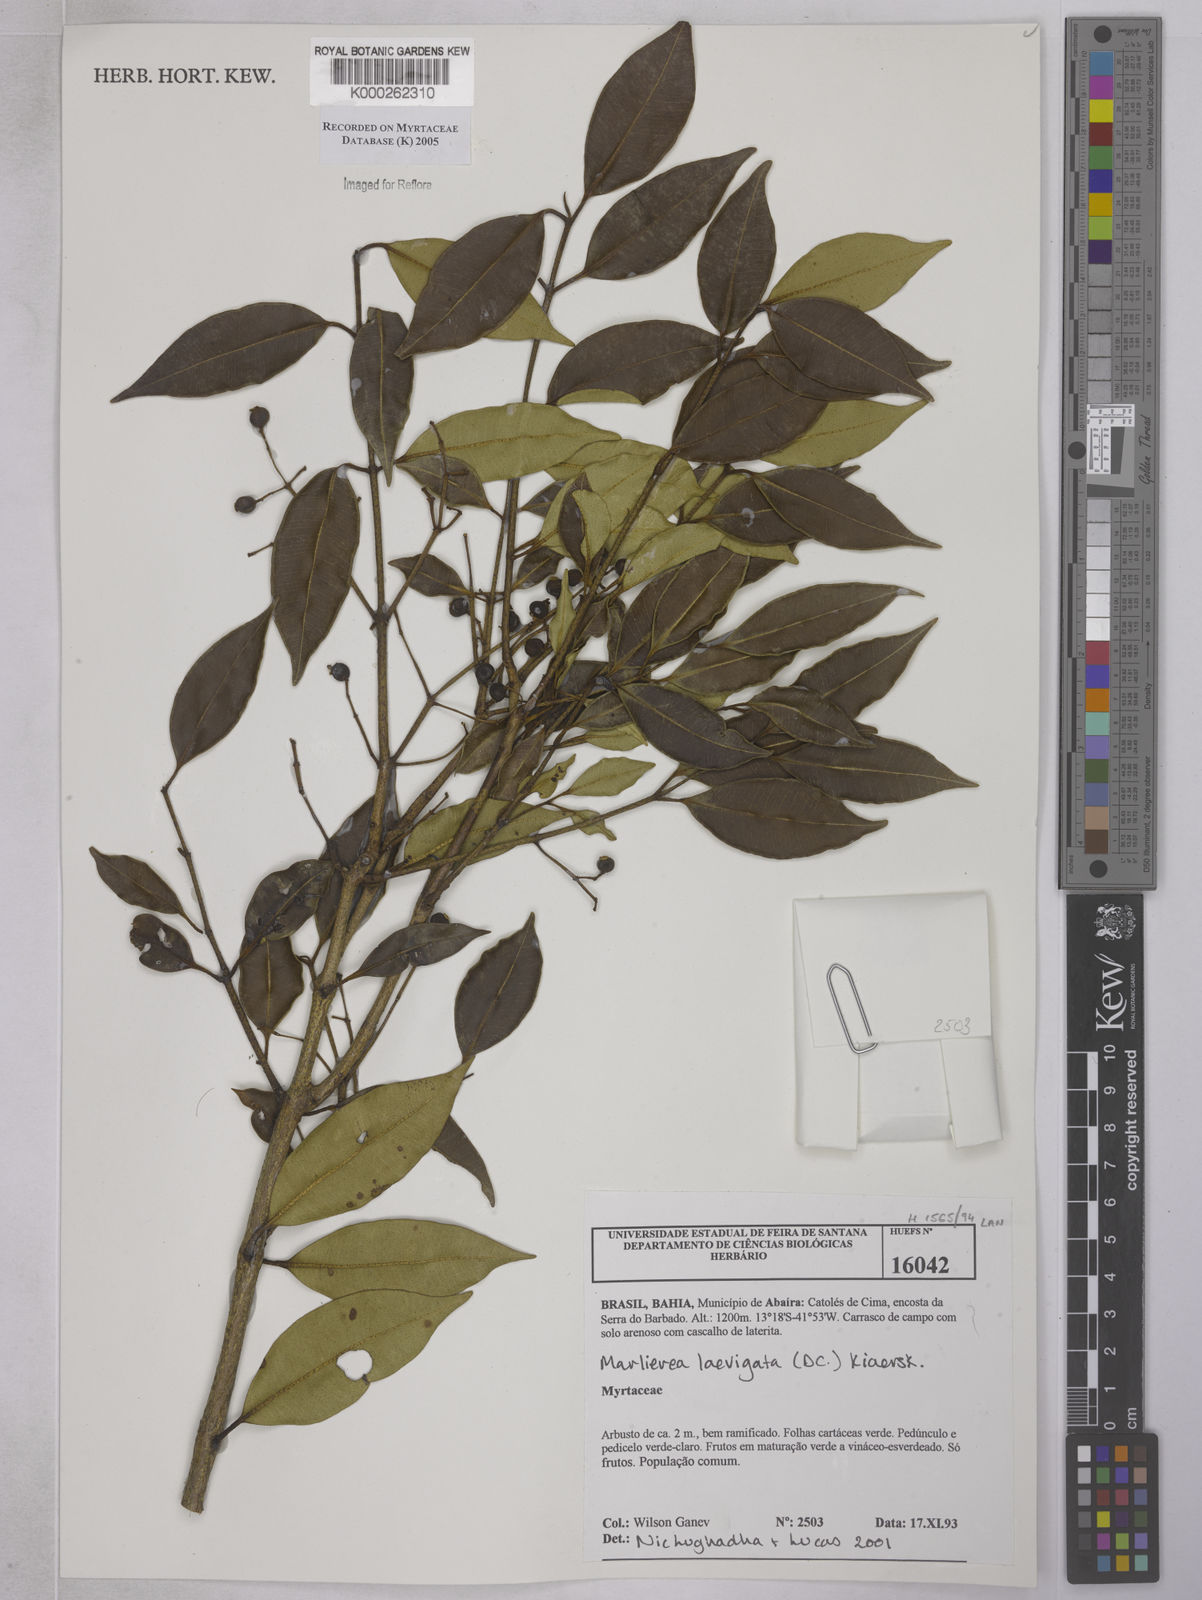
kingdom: Plantae
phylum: Tracheophyta
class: Magnoliopsida
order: Myrtales
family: Myrtaceae
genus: Myrcia
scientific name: Myrcia multipunctata
